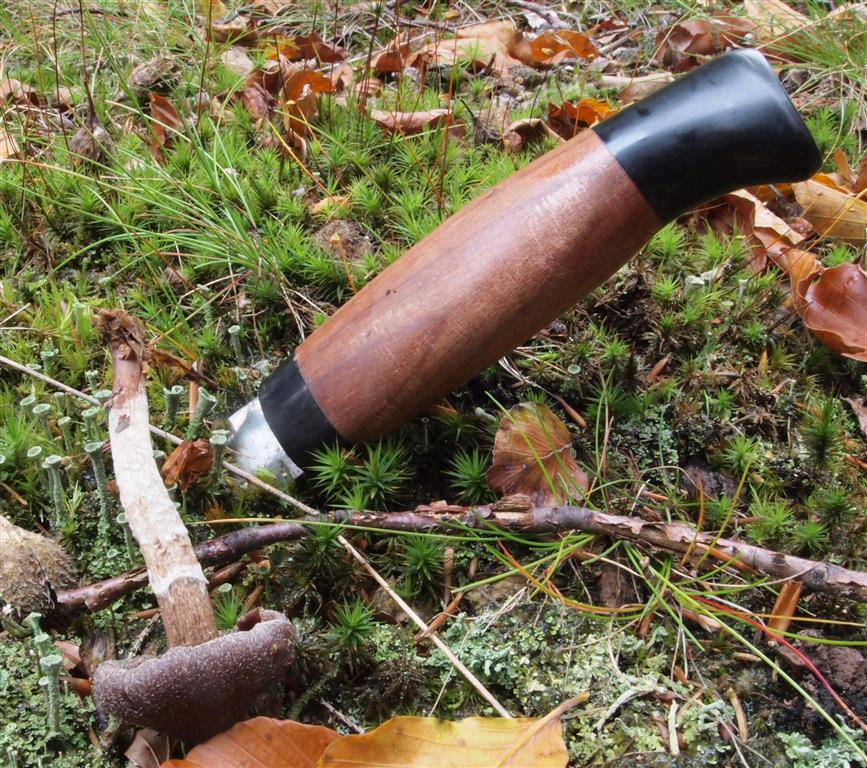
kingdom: Fungi
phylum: Basidiomycota
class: Agaricomycetes
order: Agaricales
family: Cortinariaceae
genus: Cortinarius
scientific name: Cortinarius
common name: pelargonie-slørhat
